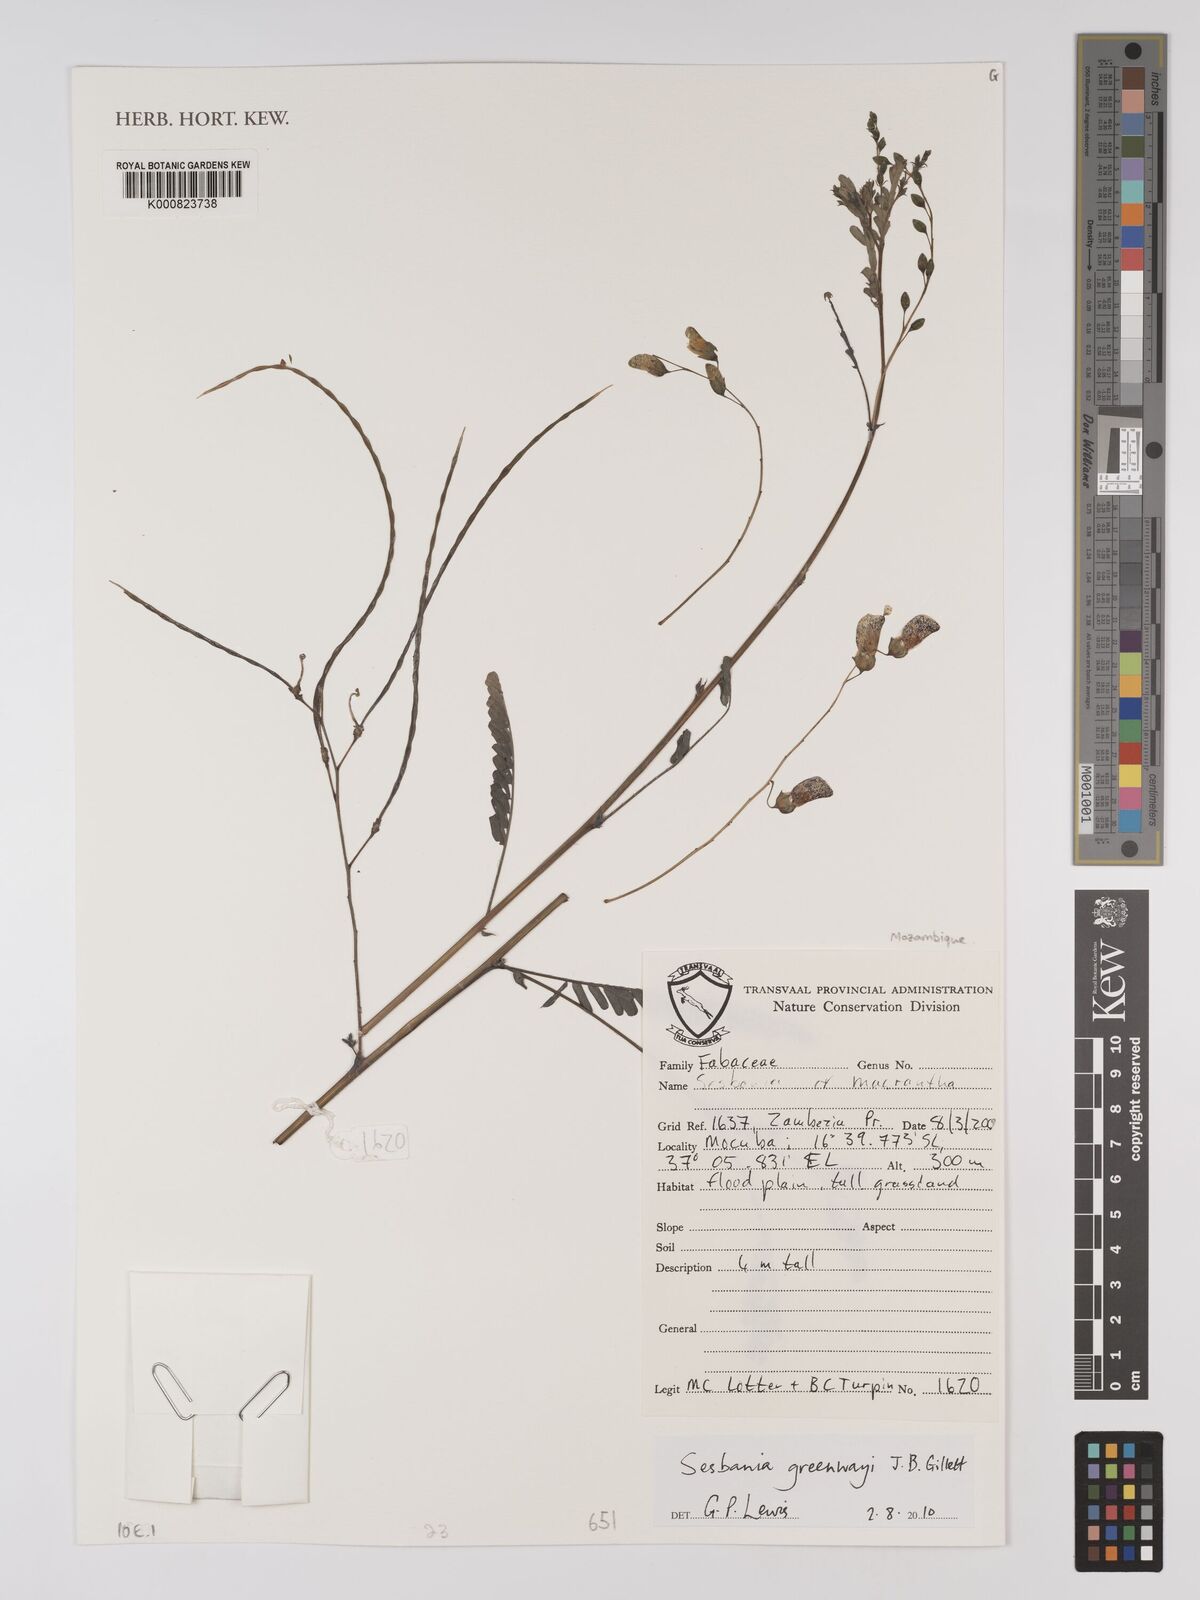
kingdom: Plantae
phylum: Tracheophyta
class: Magnoliopsida
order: Fabales
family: Fabaceae
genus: Sesbania
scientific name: Sesbania greenwayi
